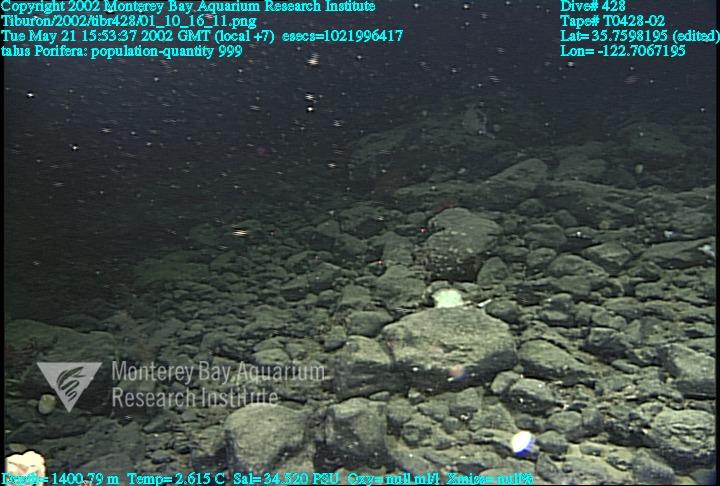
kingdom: Animalia
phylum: Porifera
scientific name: Porifera
